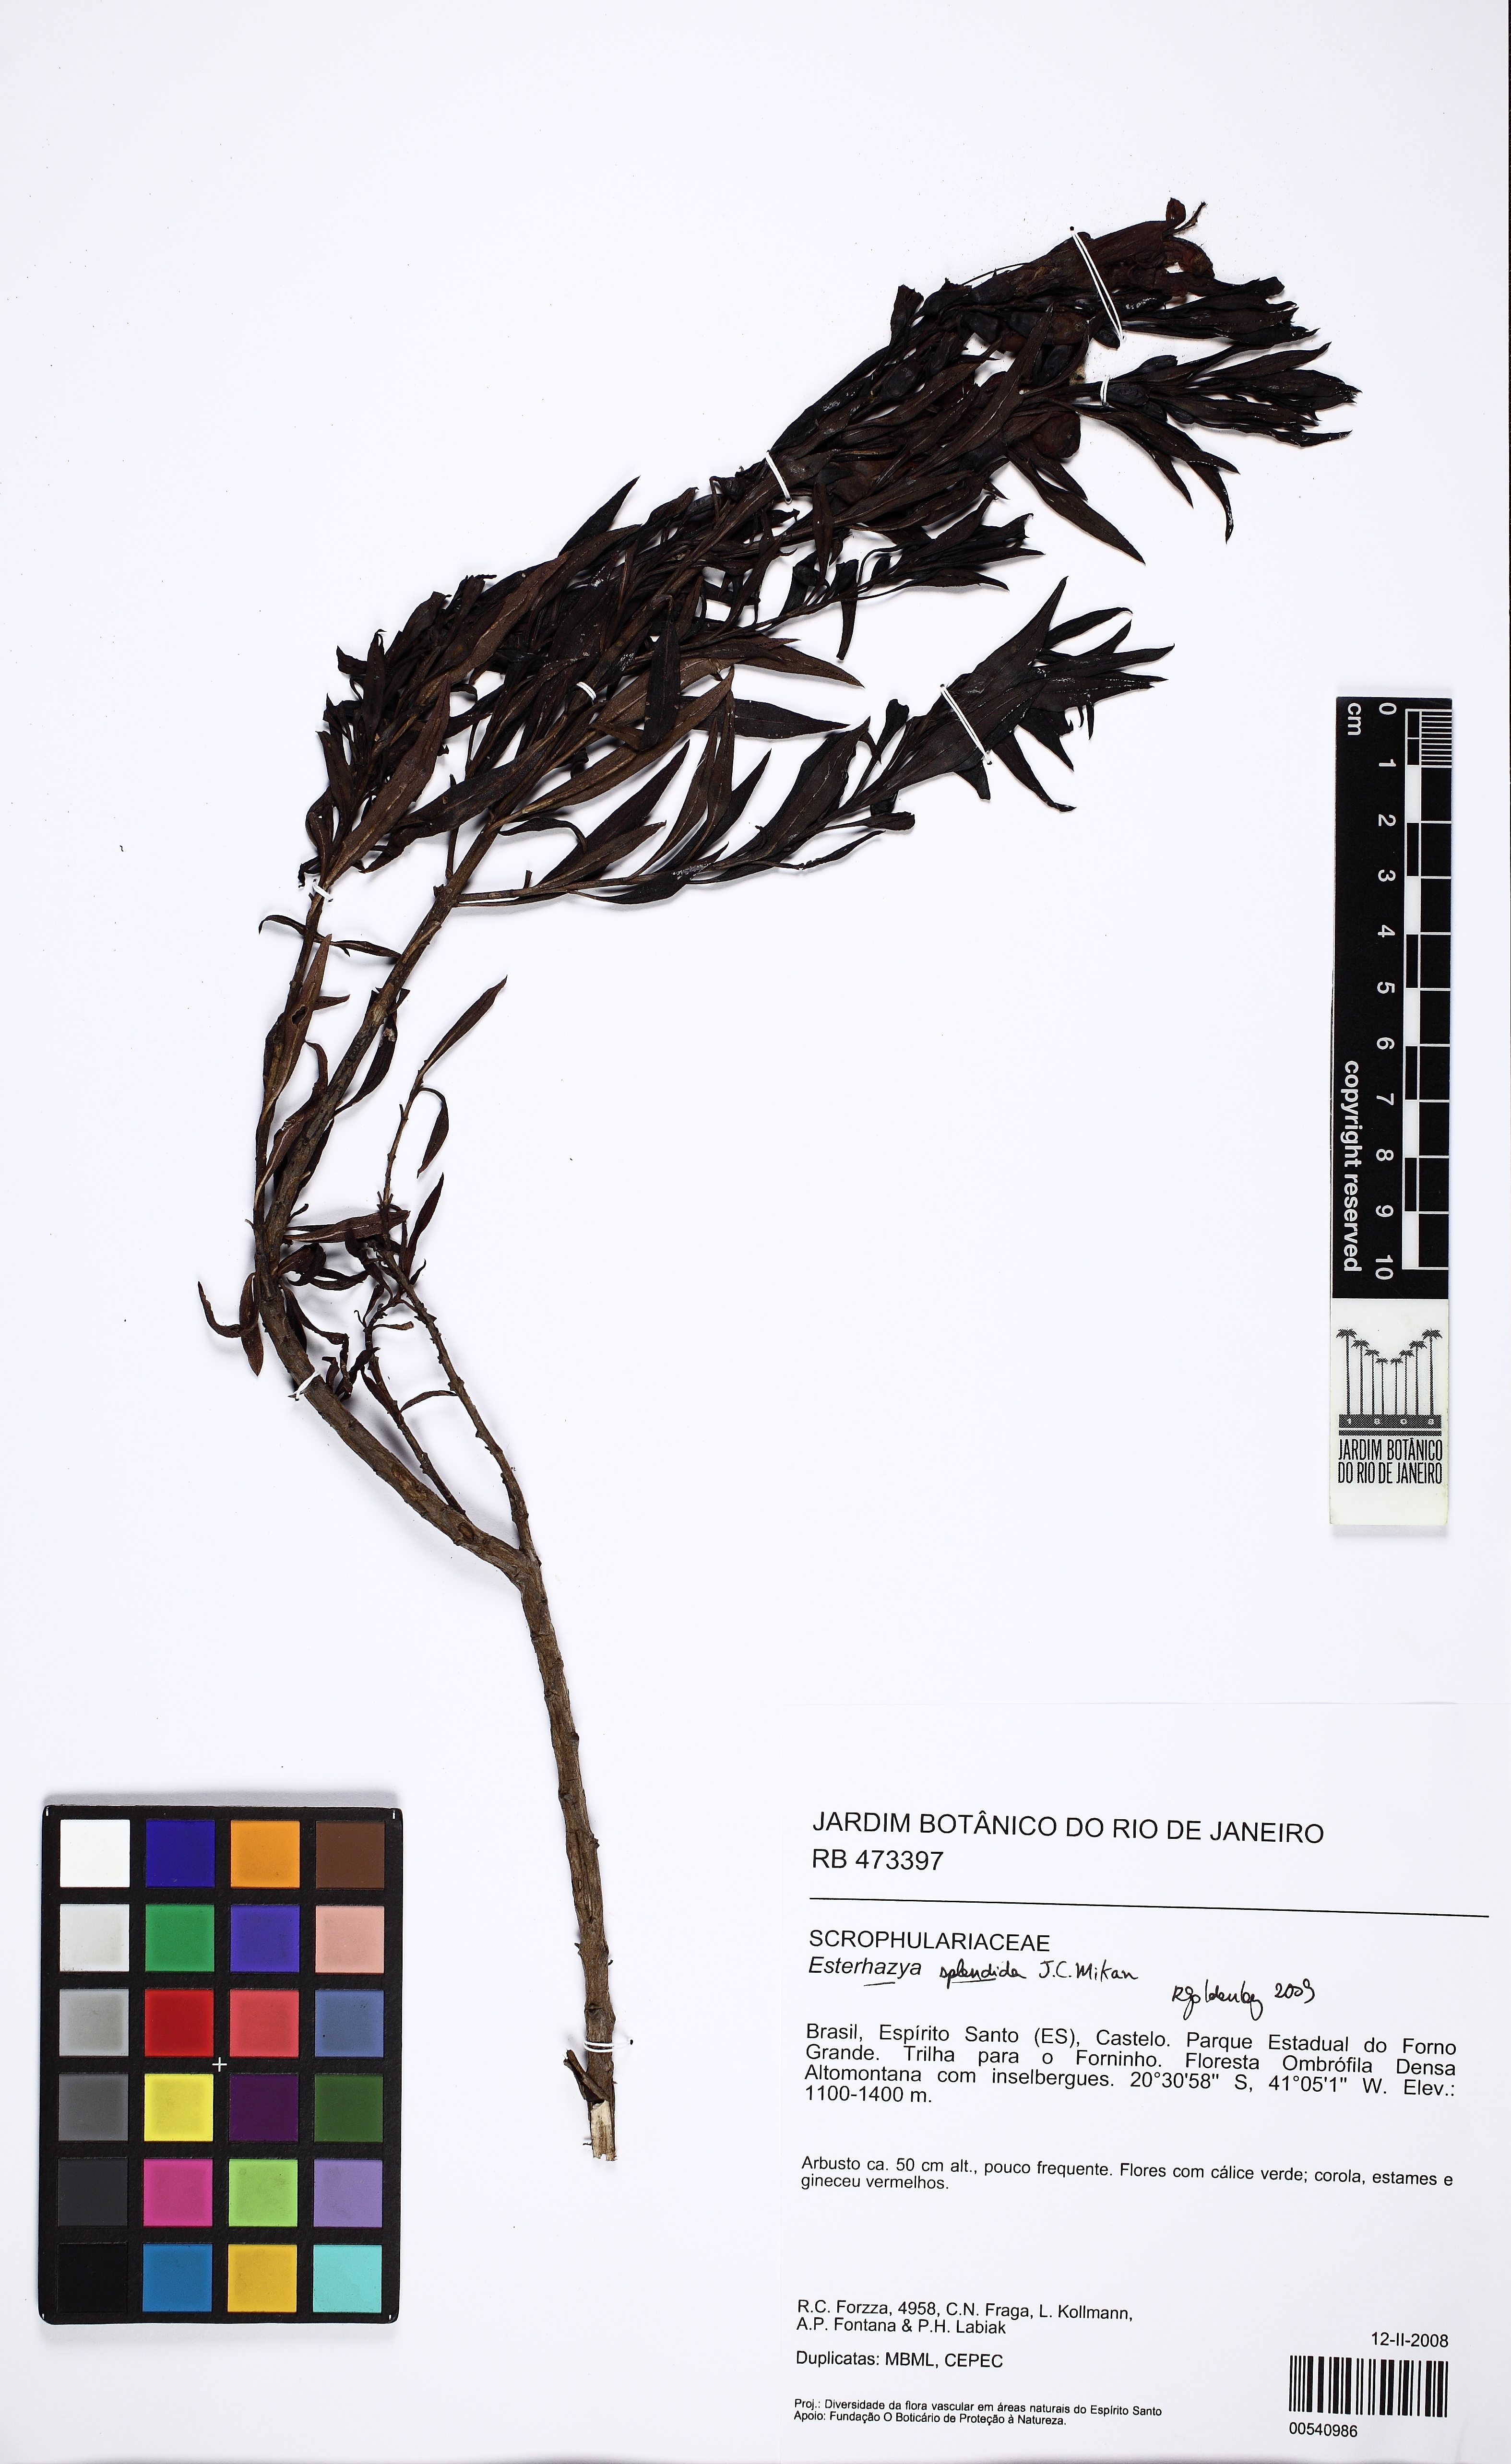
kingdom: Plantae
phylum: Tracheophyta
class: Magnoliopsida
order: Lamiales
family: Orobanchaceae
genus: Esterhazya
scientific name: Esterhazya splendida
